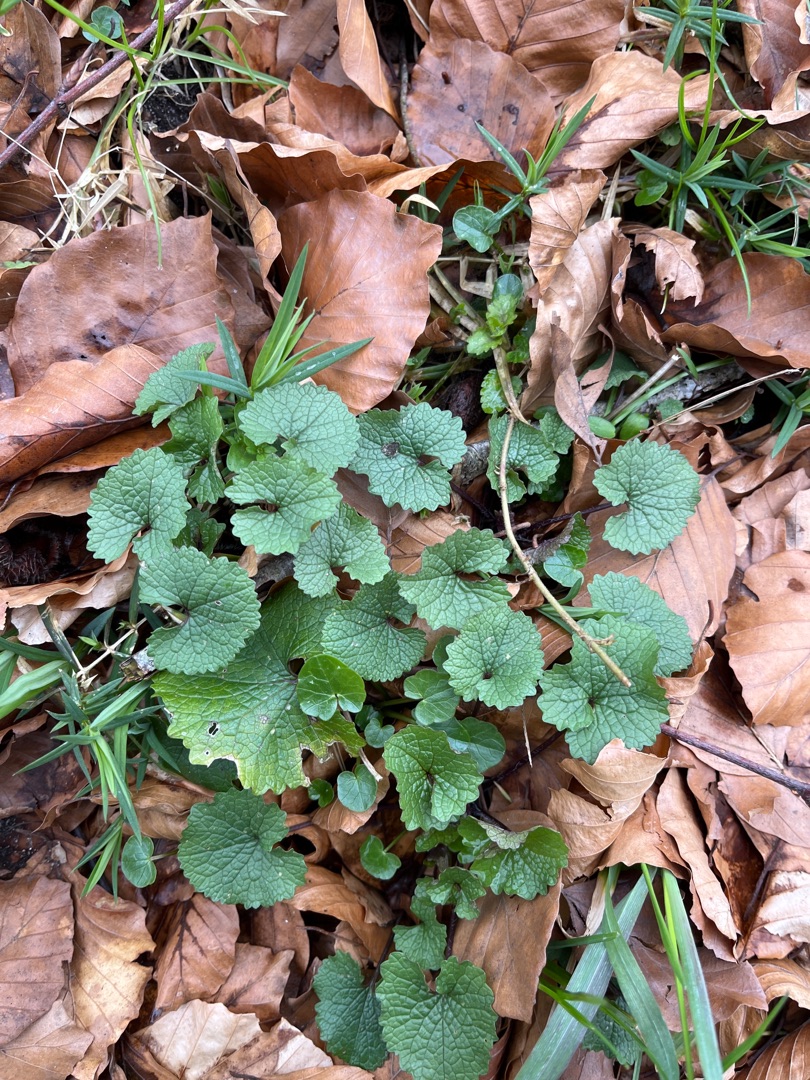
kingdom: Plantae
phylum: Tracheophyta
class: Magnoliopsida
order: Brassicales
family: Brassicaceae
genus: Alliaria
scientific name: Alliaria petiolata
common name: Løgkarse
